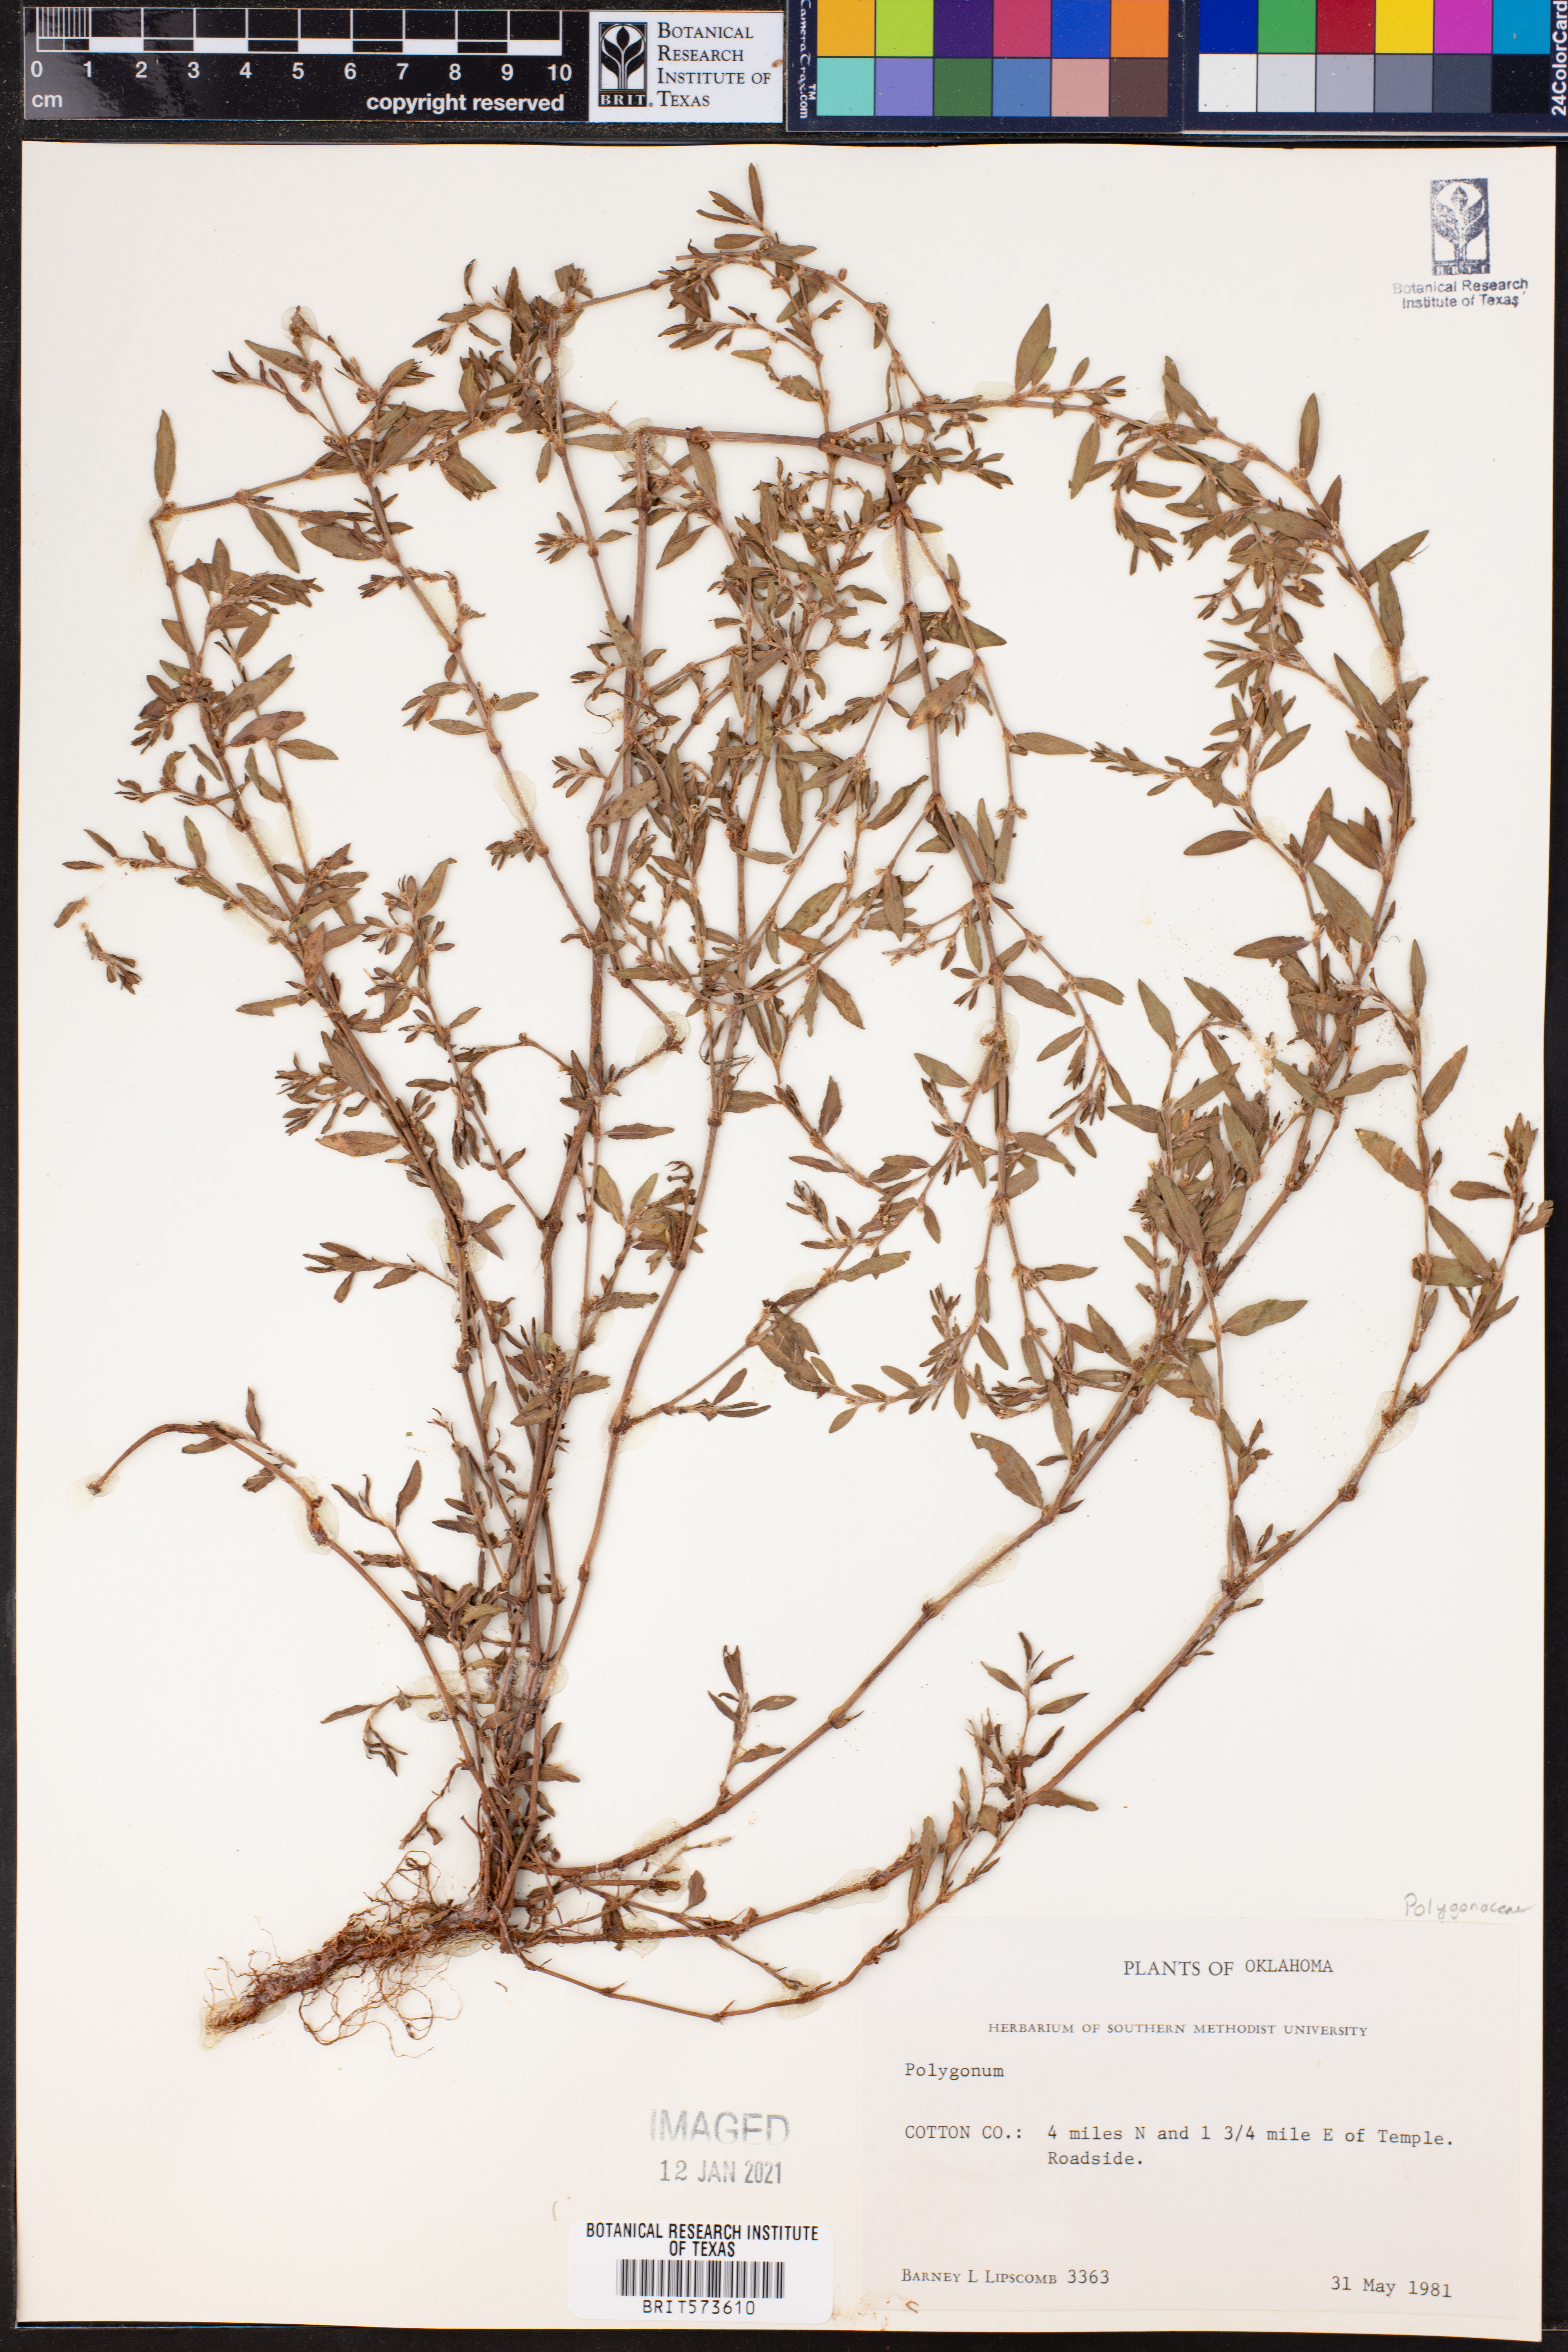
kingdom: Plantae
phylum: Tracheophyta
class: Magnoliopsida
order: Caryophyllales
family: Polygonaceae
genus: Polygonum
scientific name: Polygonum
